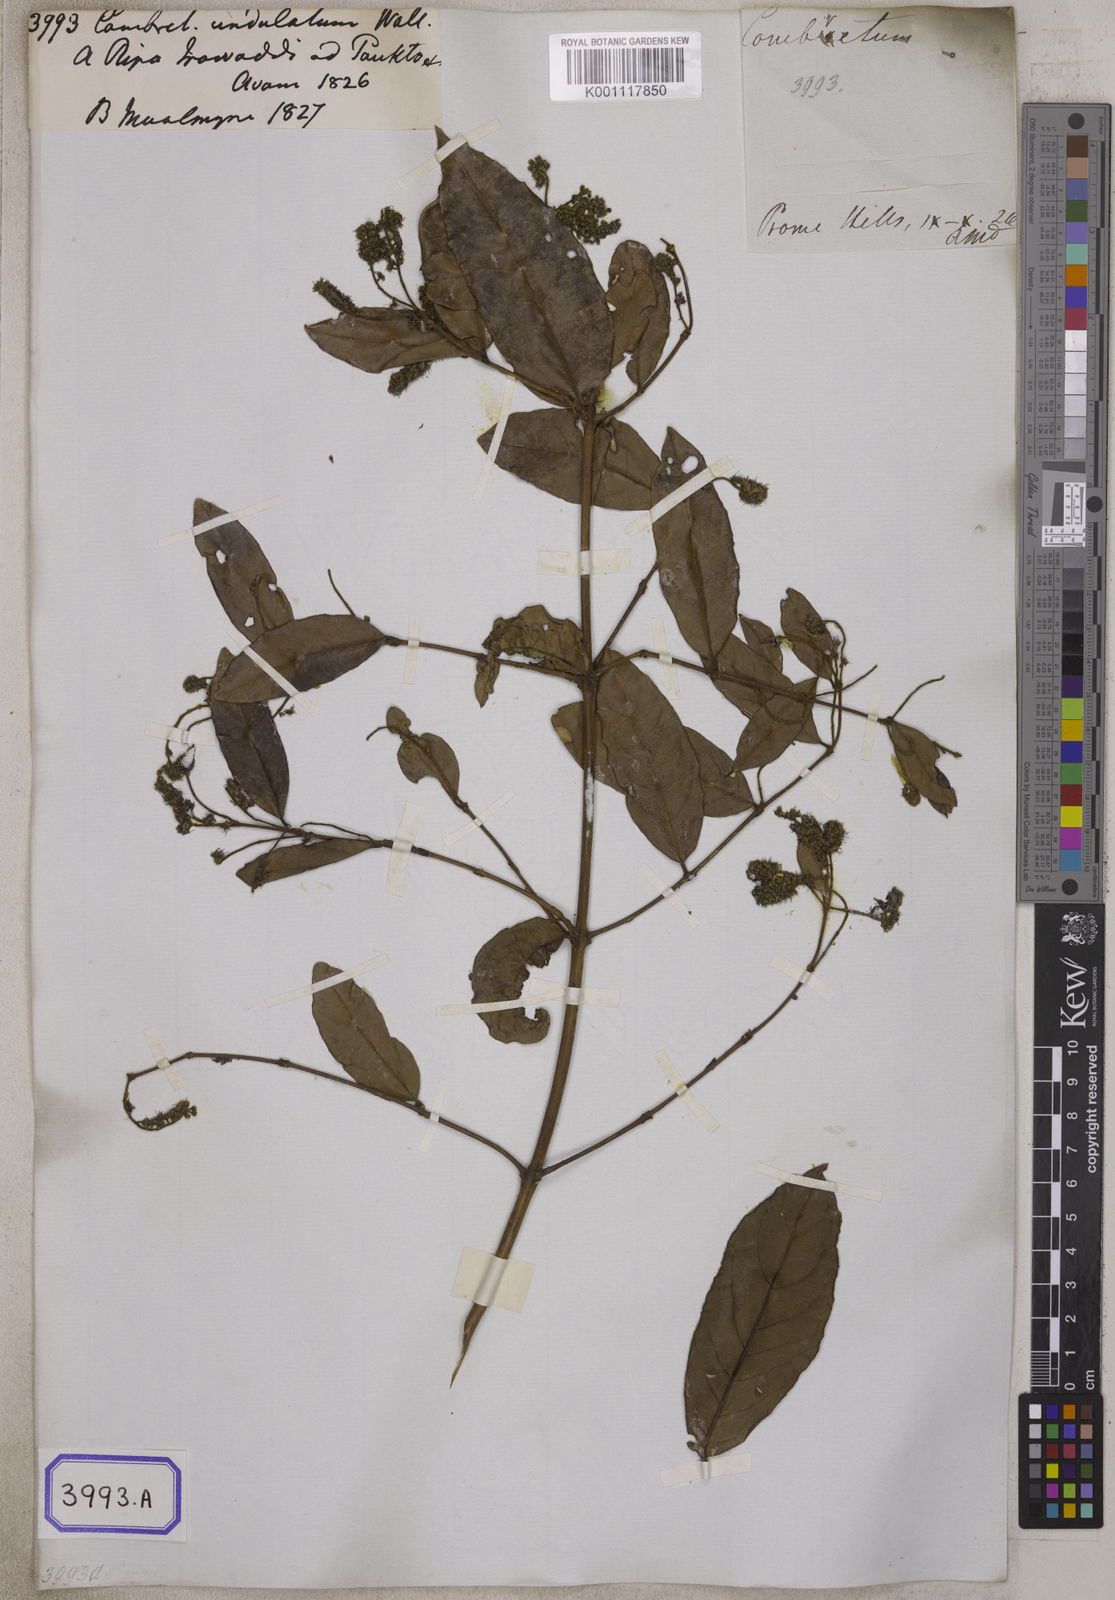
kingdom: Plantae
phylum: Tracheophyta
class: Magnoliopsida
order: Myrtales
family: Combretaceae
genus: Combretum
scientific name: Combretum trifoliatum
